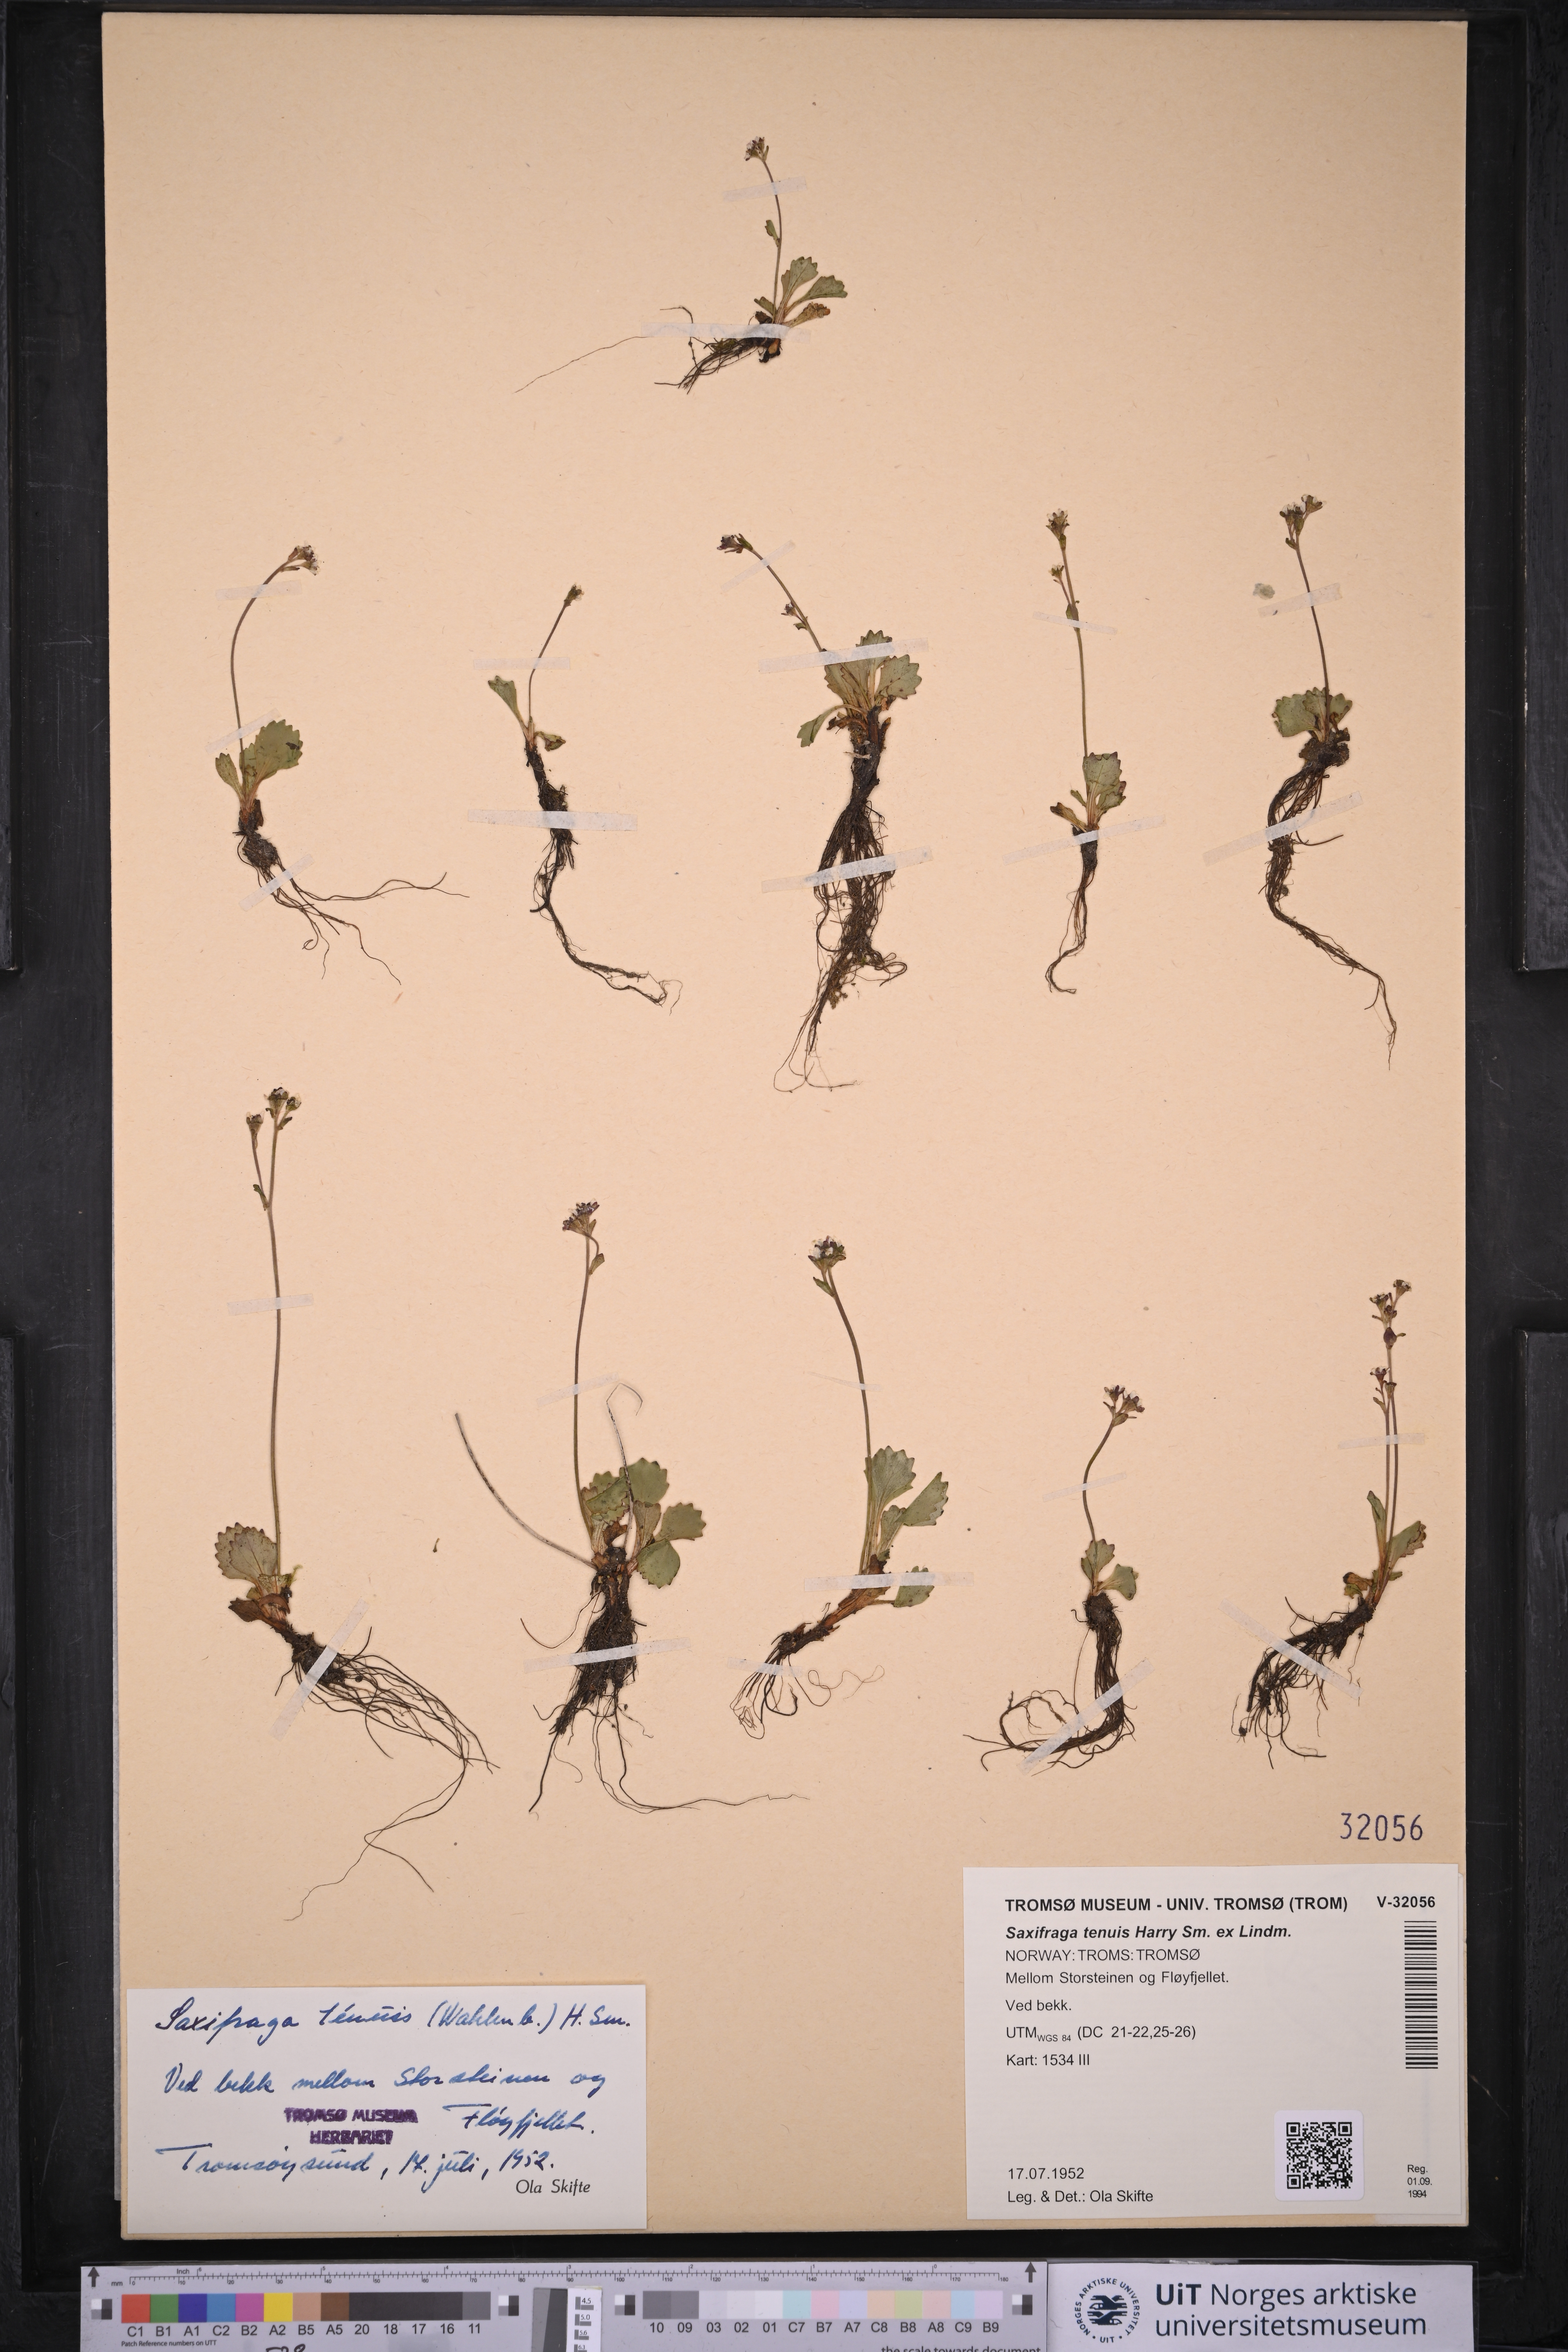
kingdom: Plantae
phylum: Tracheophyta
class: Magnoliopsida
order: Saxifragales
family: Saxifragaceae
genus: Micranthes
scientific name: Micranthes tenuis
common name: Ottertail pass saxifrage
